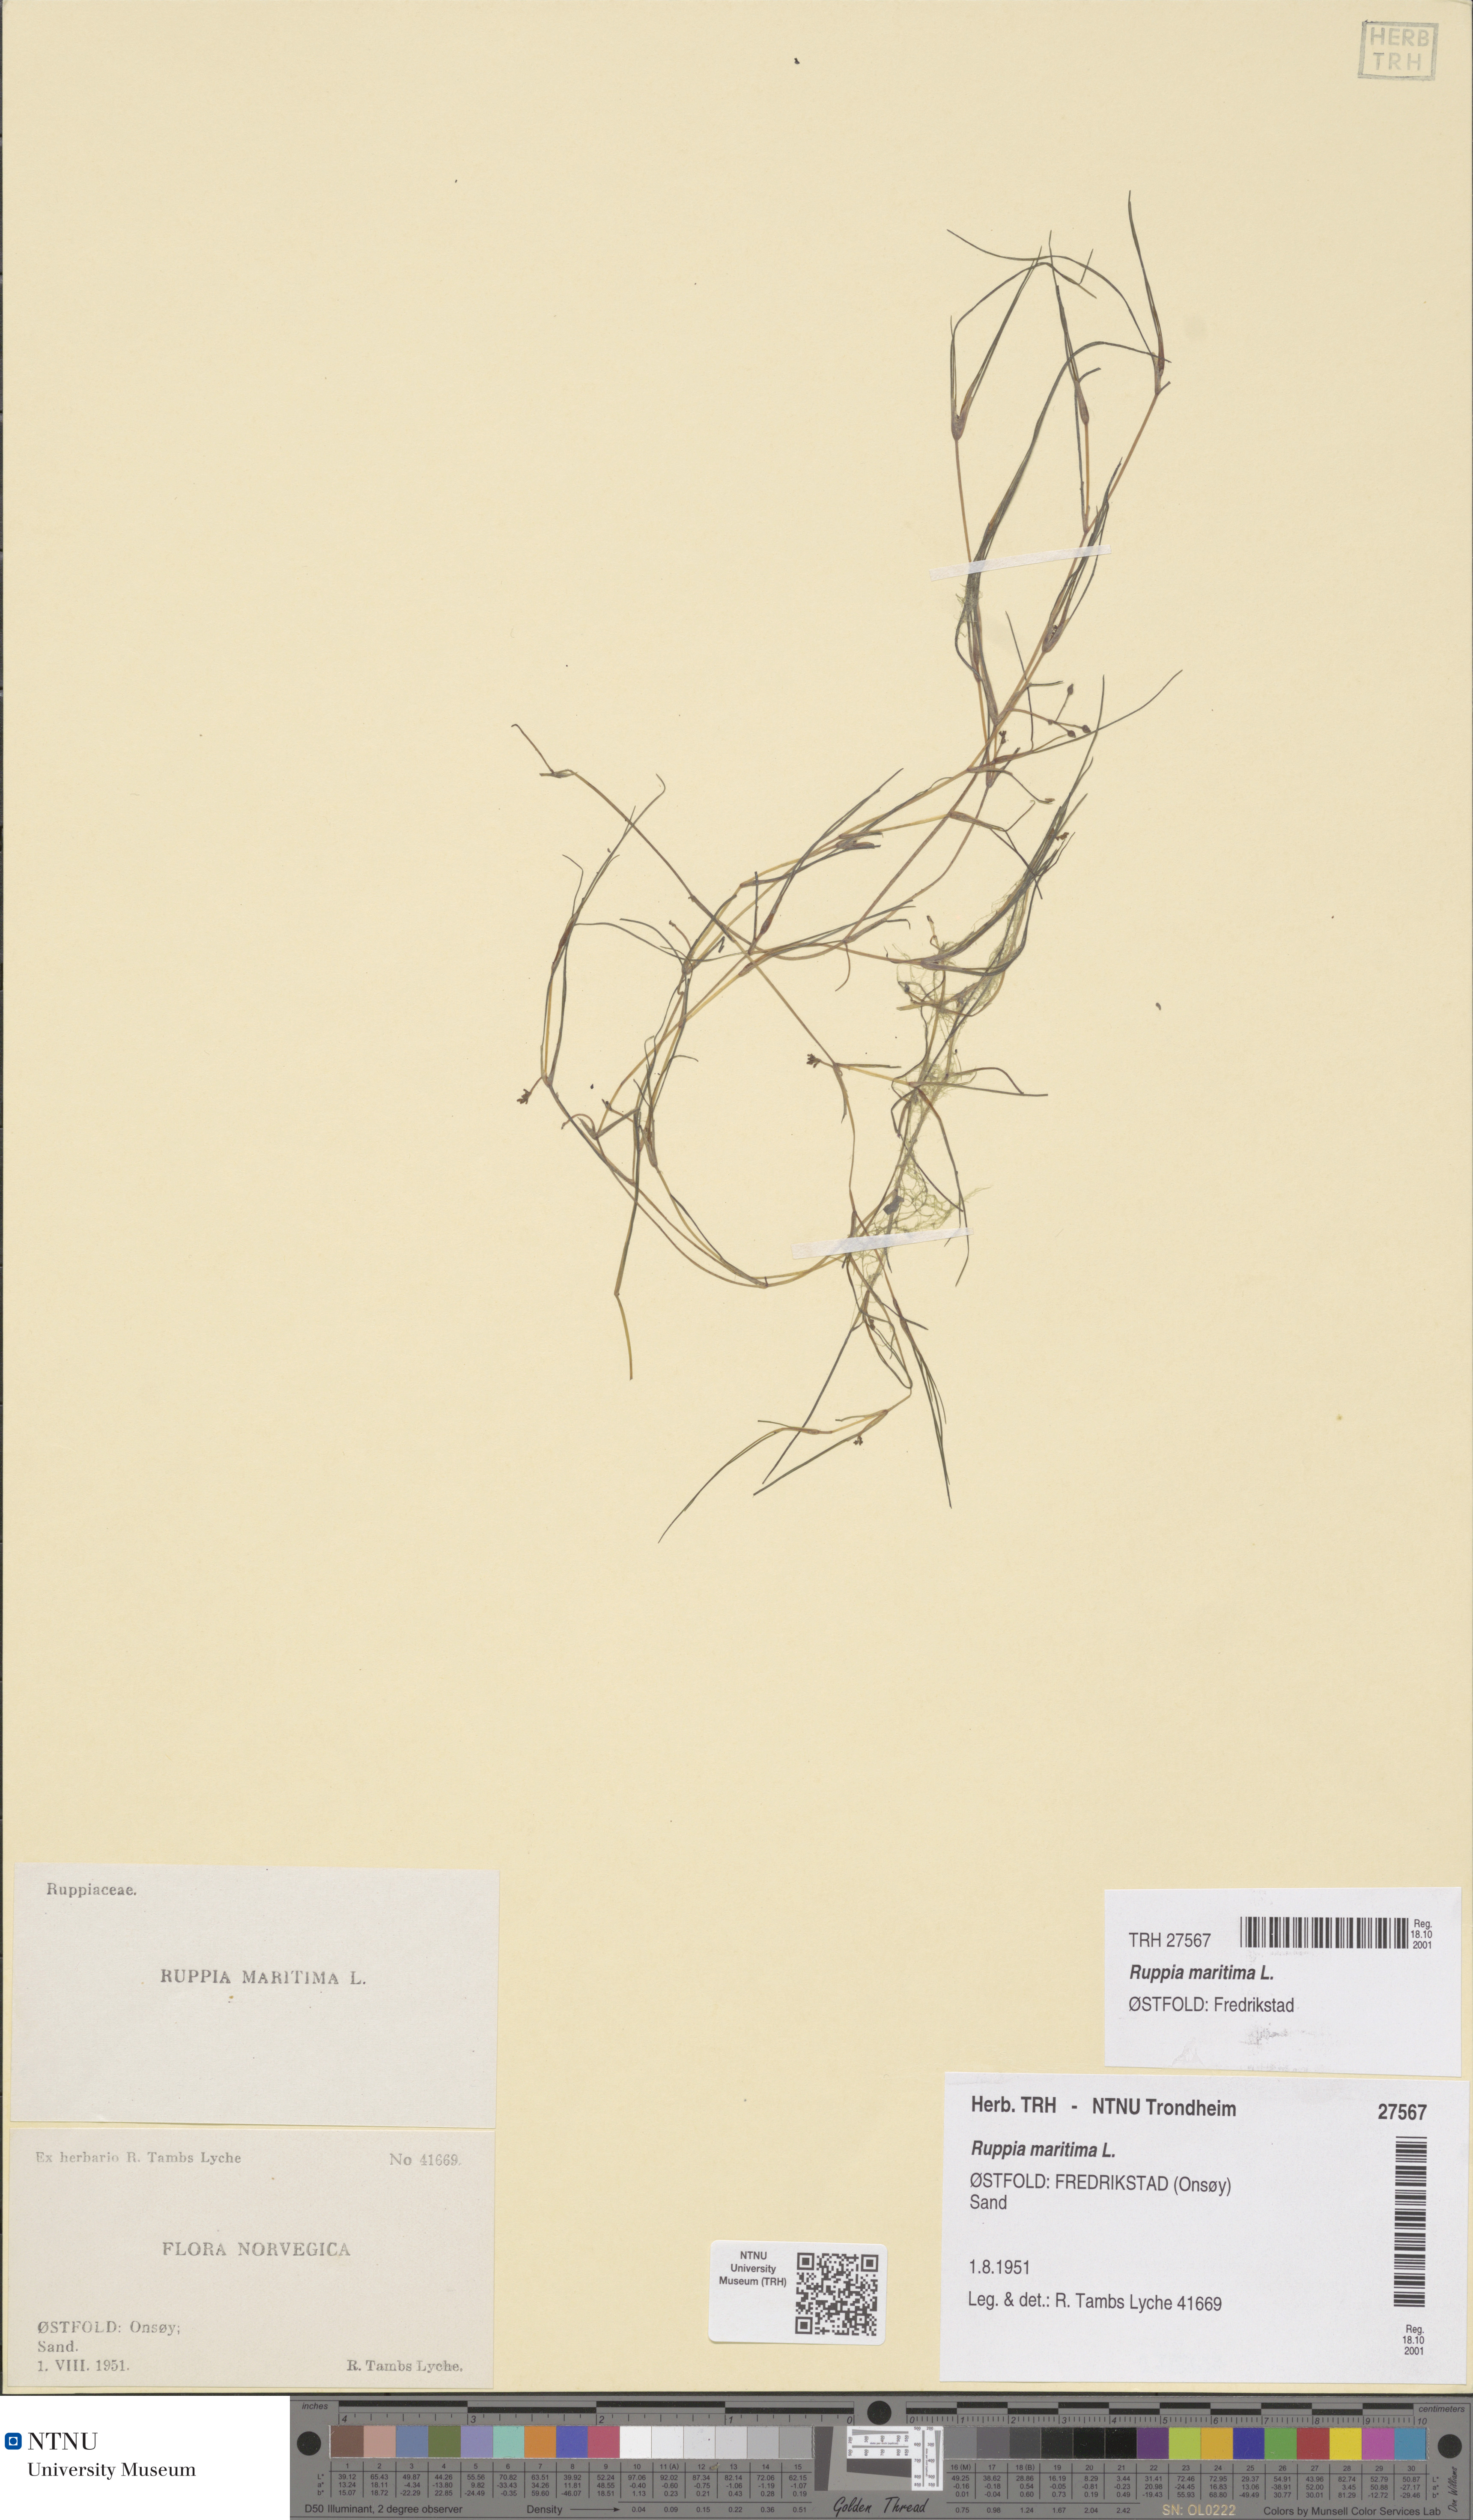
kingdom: Plantae
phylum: Tracheophyta
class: Liliopsida
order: Alismatales
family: Ruppiaceae
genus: Ruppia
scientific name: Ruppia maritima
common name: Beaked tasselweed
